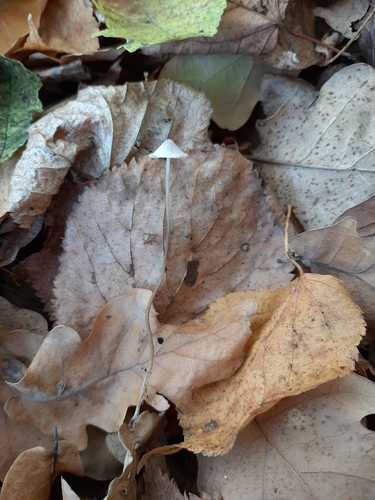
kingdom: Fungi
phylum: Basidiomycota
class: Agaricomycetes
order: Agaricales
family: Mycenaceae
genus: Mycena
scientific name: Mycena vitilis
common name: Snapping bonnet
